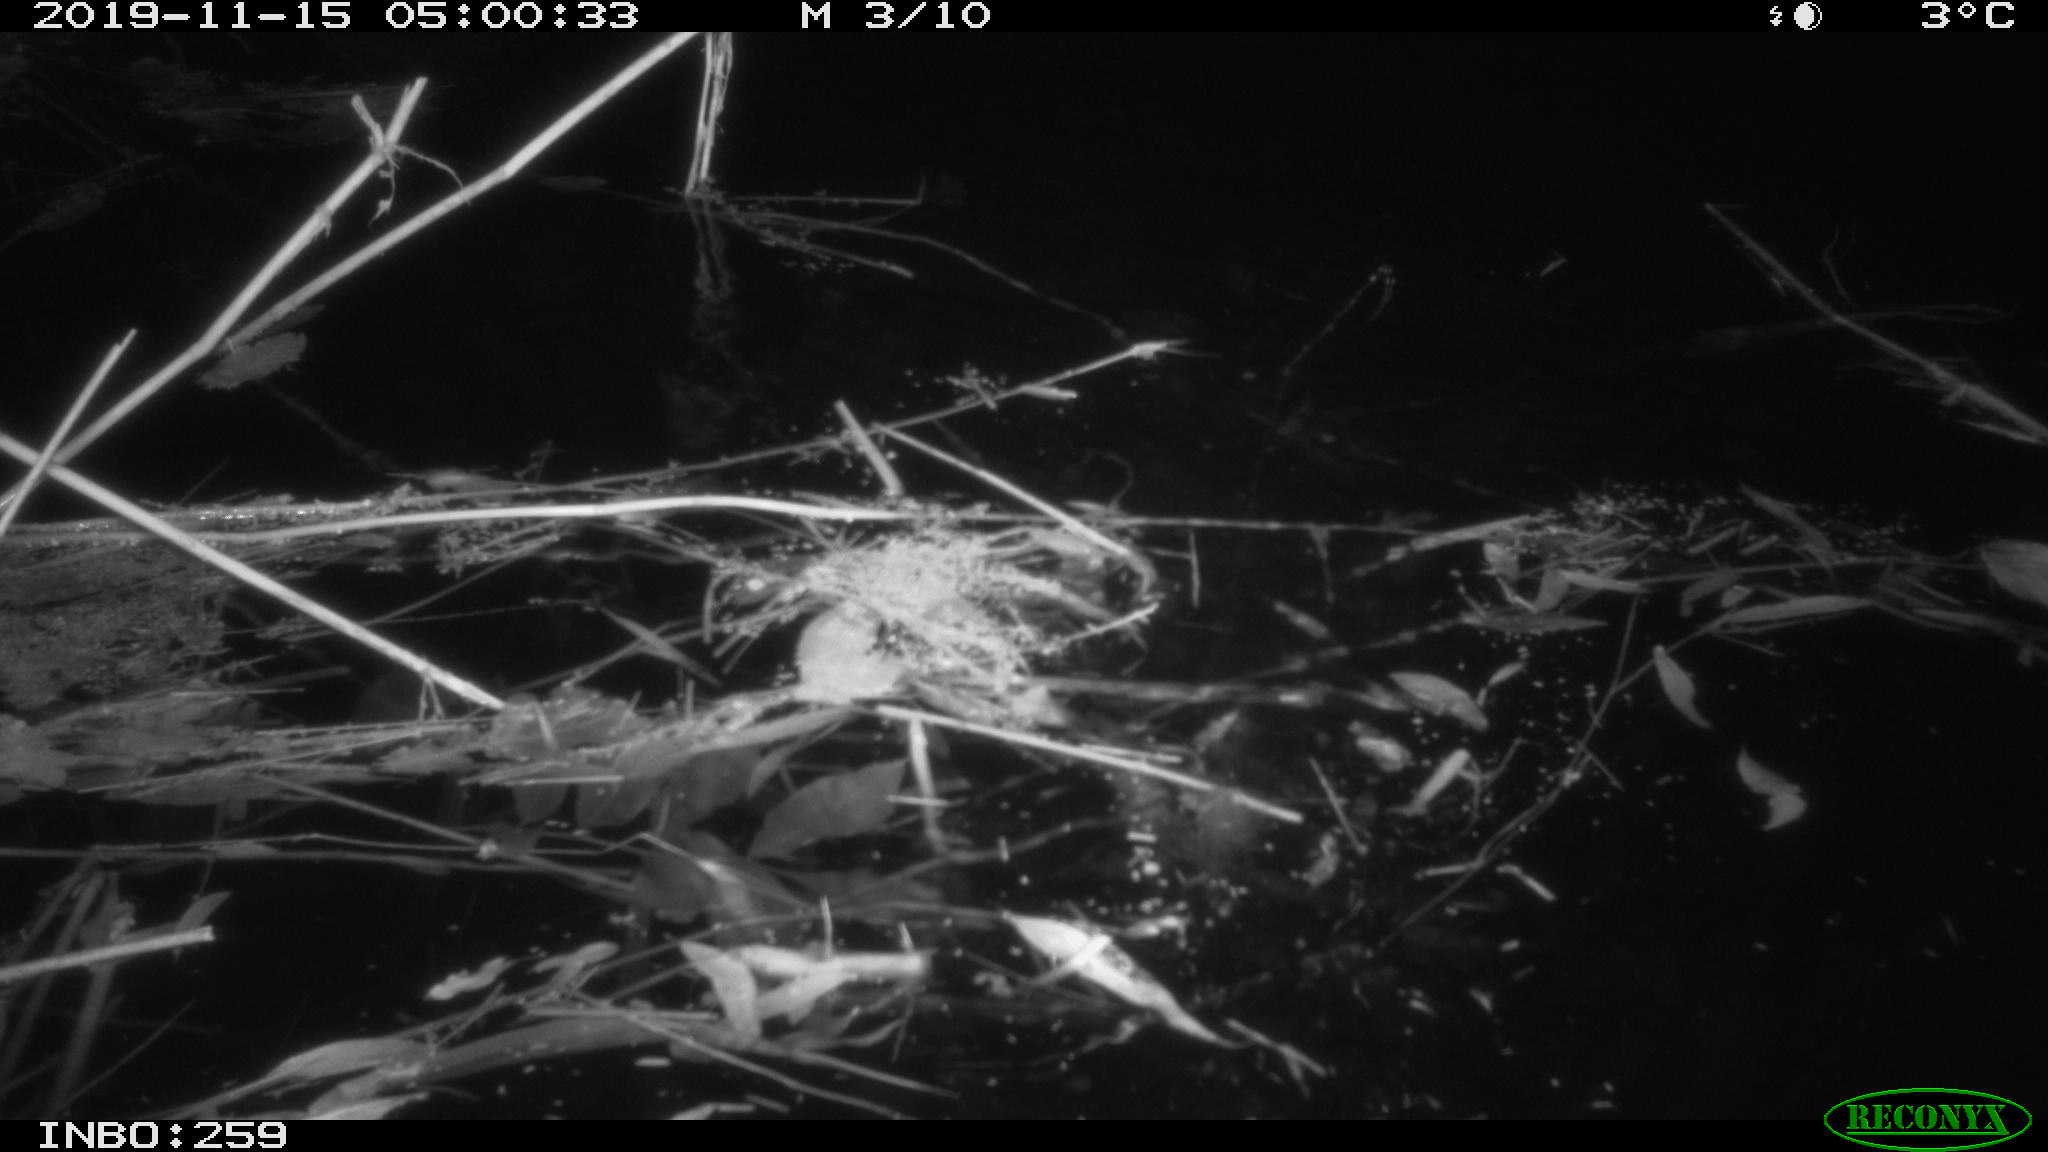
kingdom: Animalia
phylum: Chordata
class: Mammalia
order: Rodentia
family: Cricetidae
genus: Ondatra
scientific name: Ondatra zibethicus
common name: Muskrat
